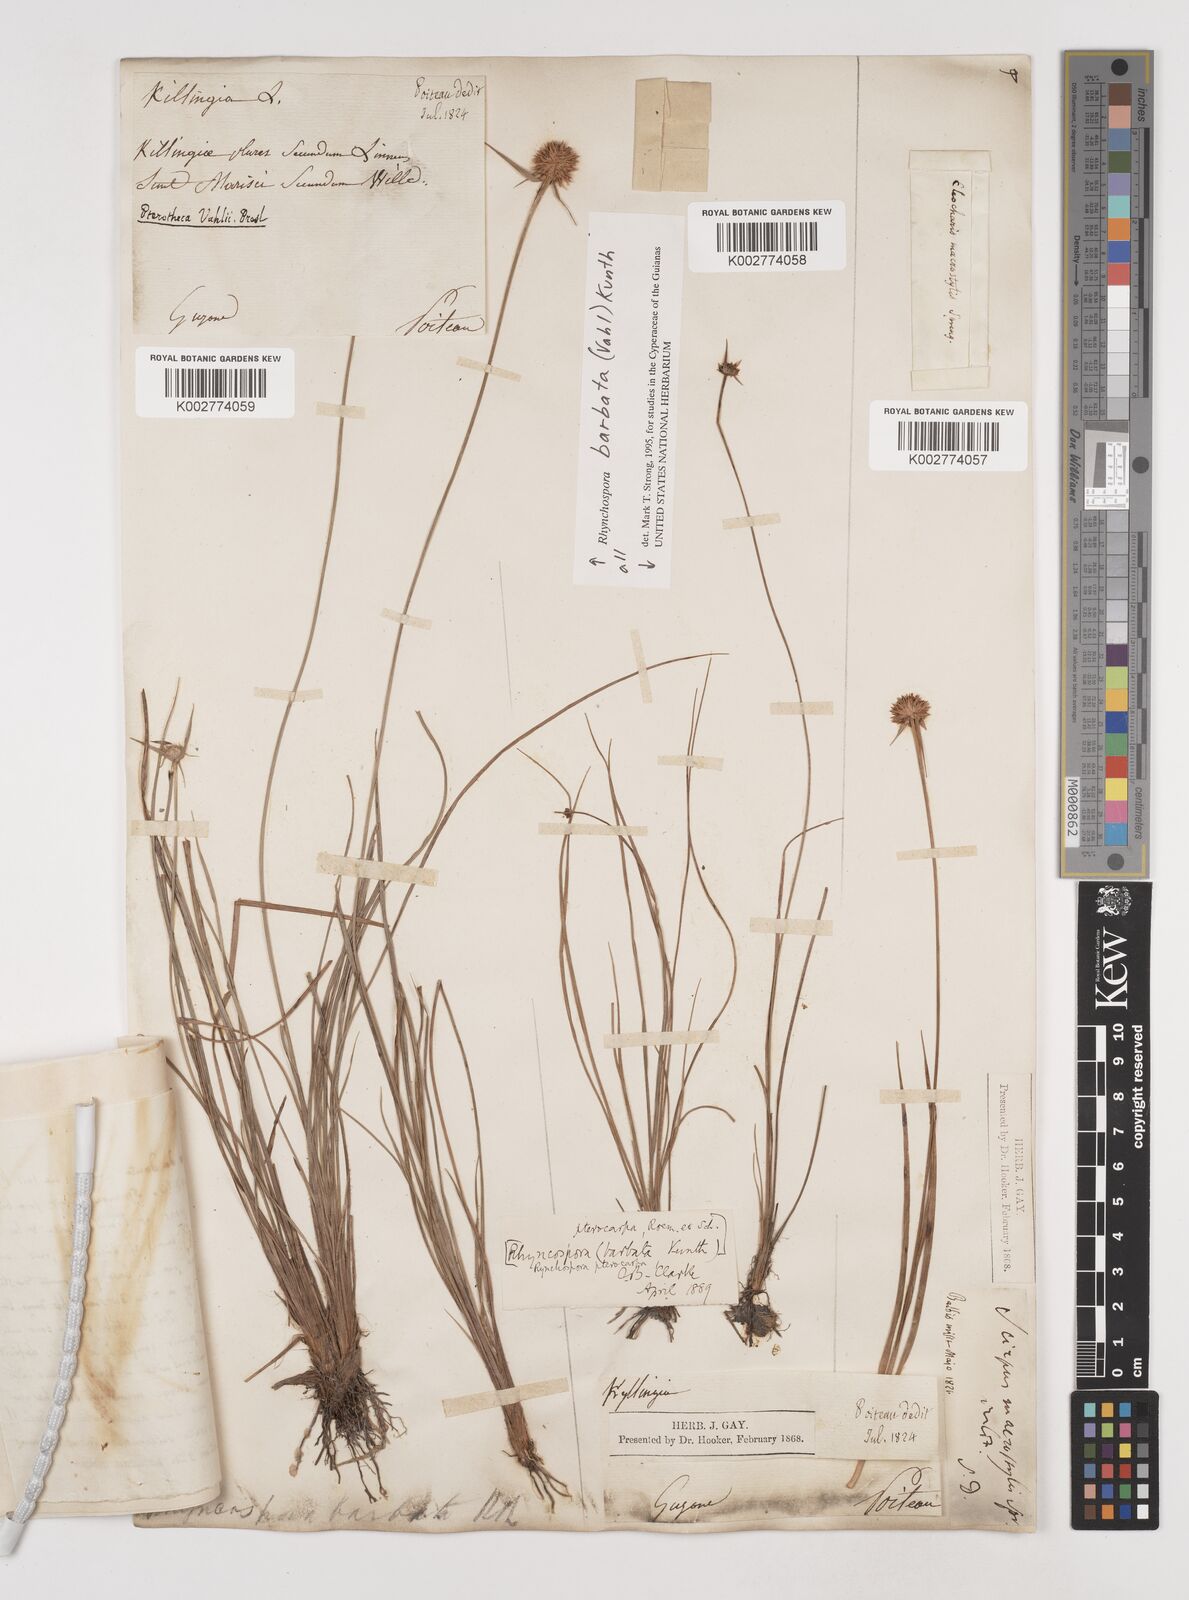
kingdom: Plantae
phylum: Tracheophyta
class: Liliopsida
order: Poales
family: Cyperaceae
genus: Rhynchospora
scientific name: Rhynchospora barbata
